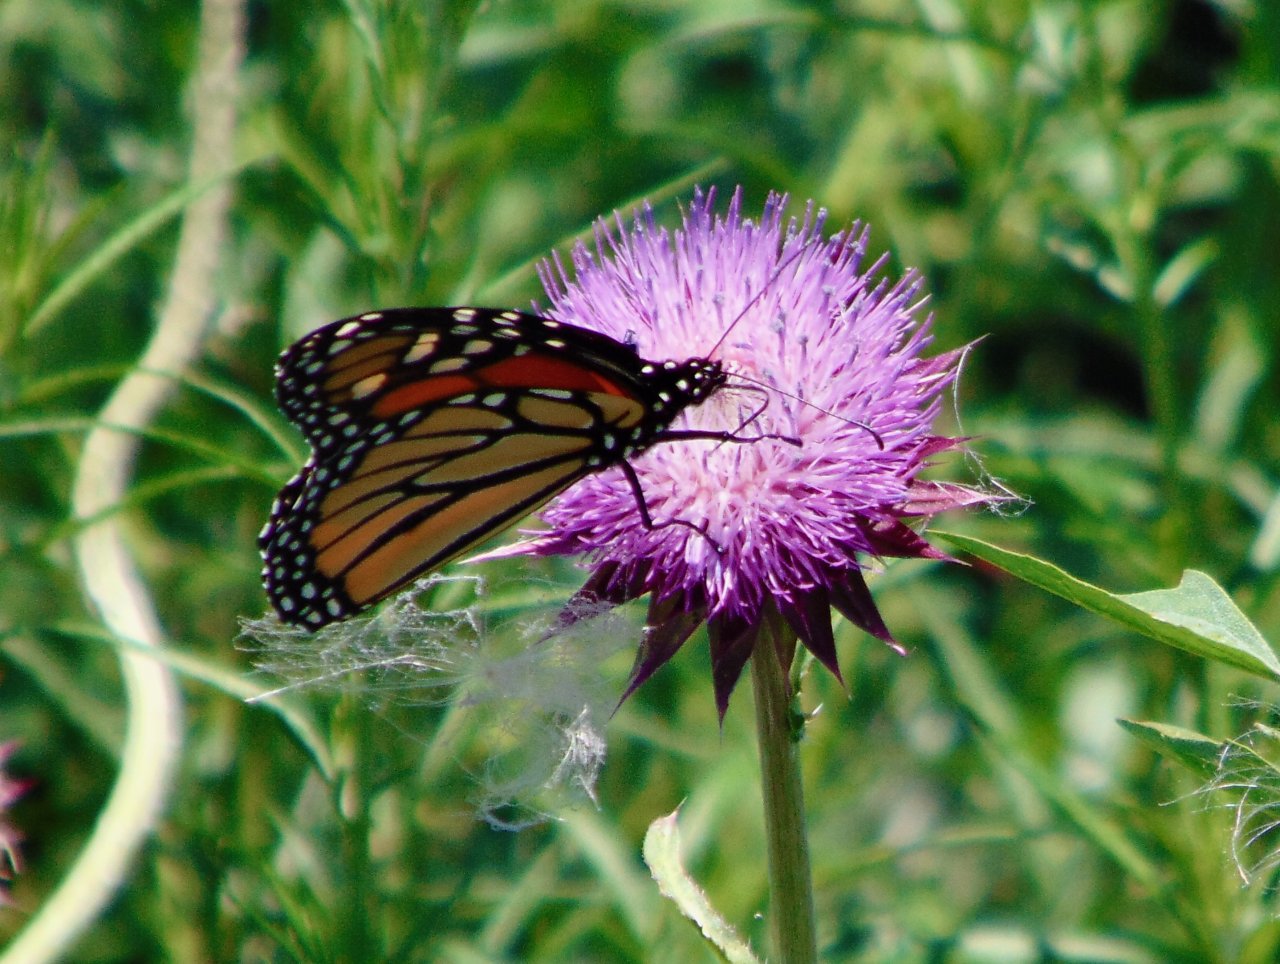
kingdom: Animalia
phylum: Arthropoda
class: Insecta
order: Lepidoptera
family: Nymphalidae
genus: Danaus
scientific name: Danaus plexippus
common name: Monarch
